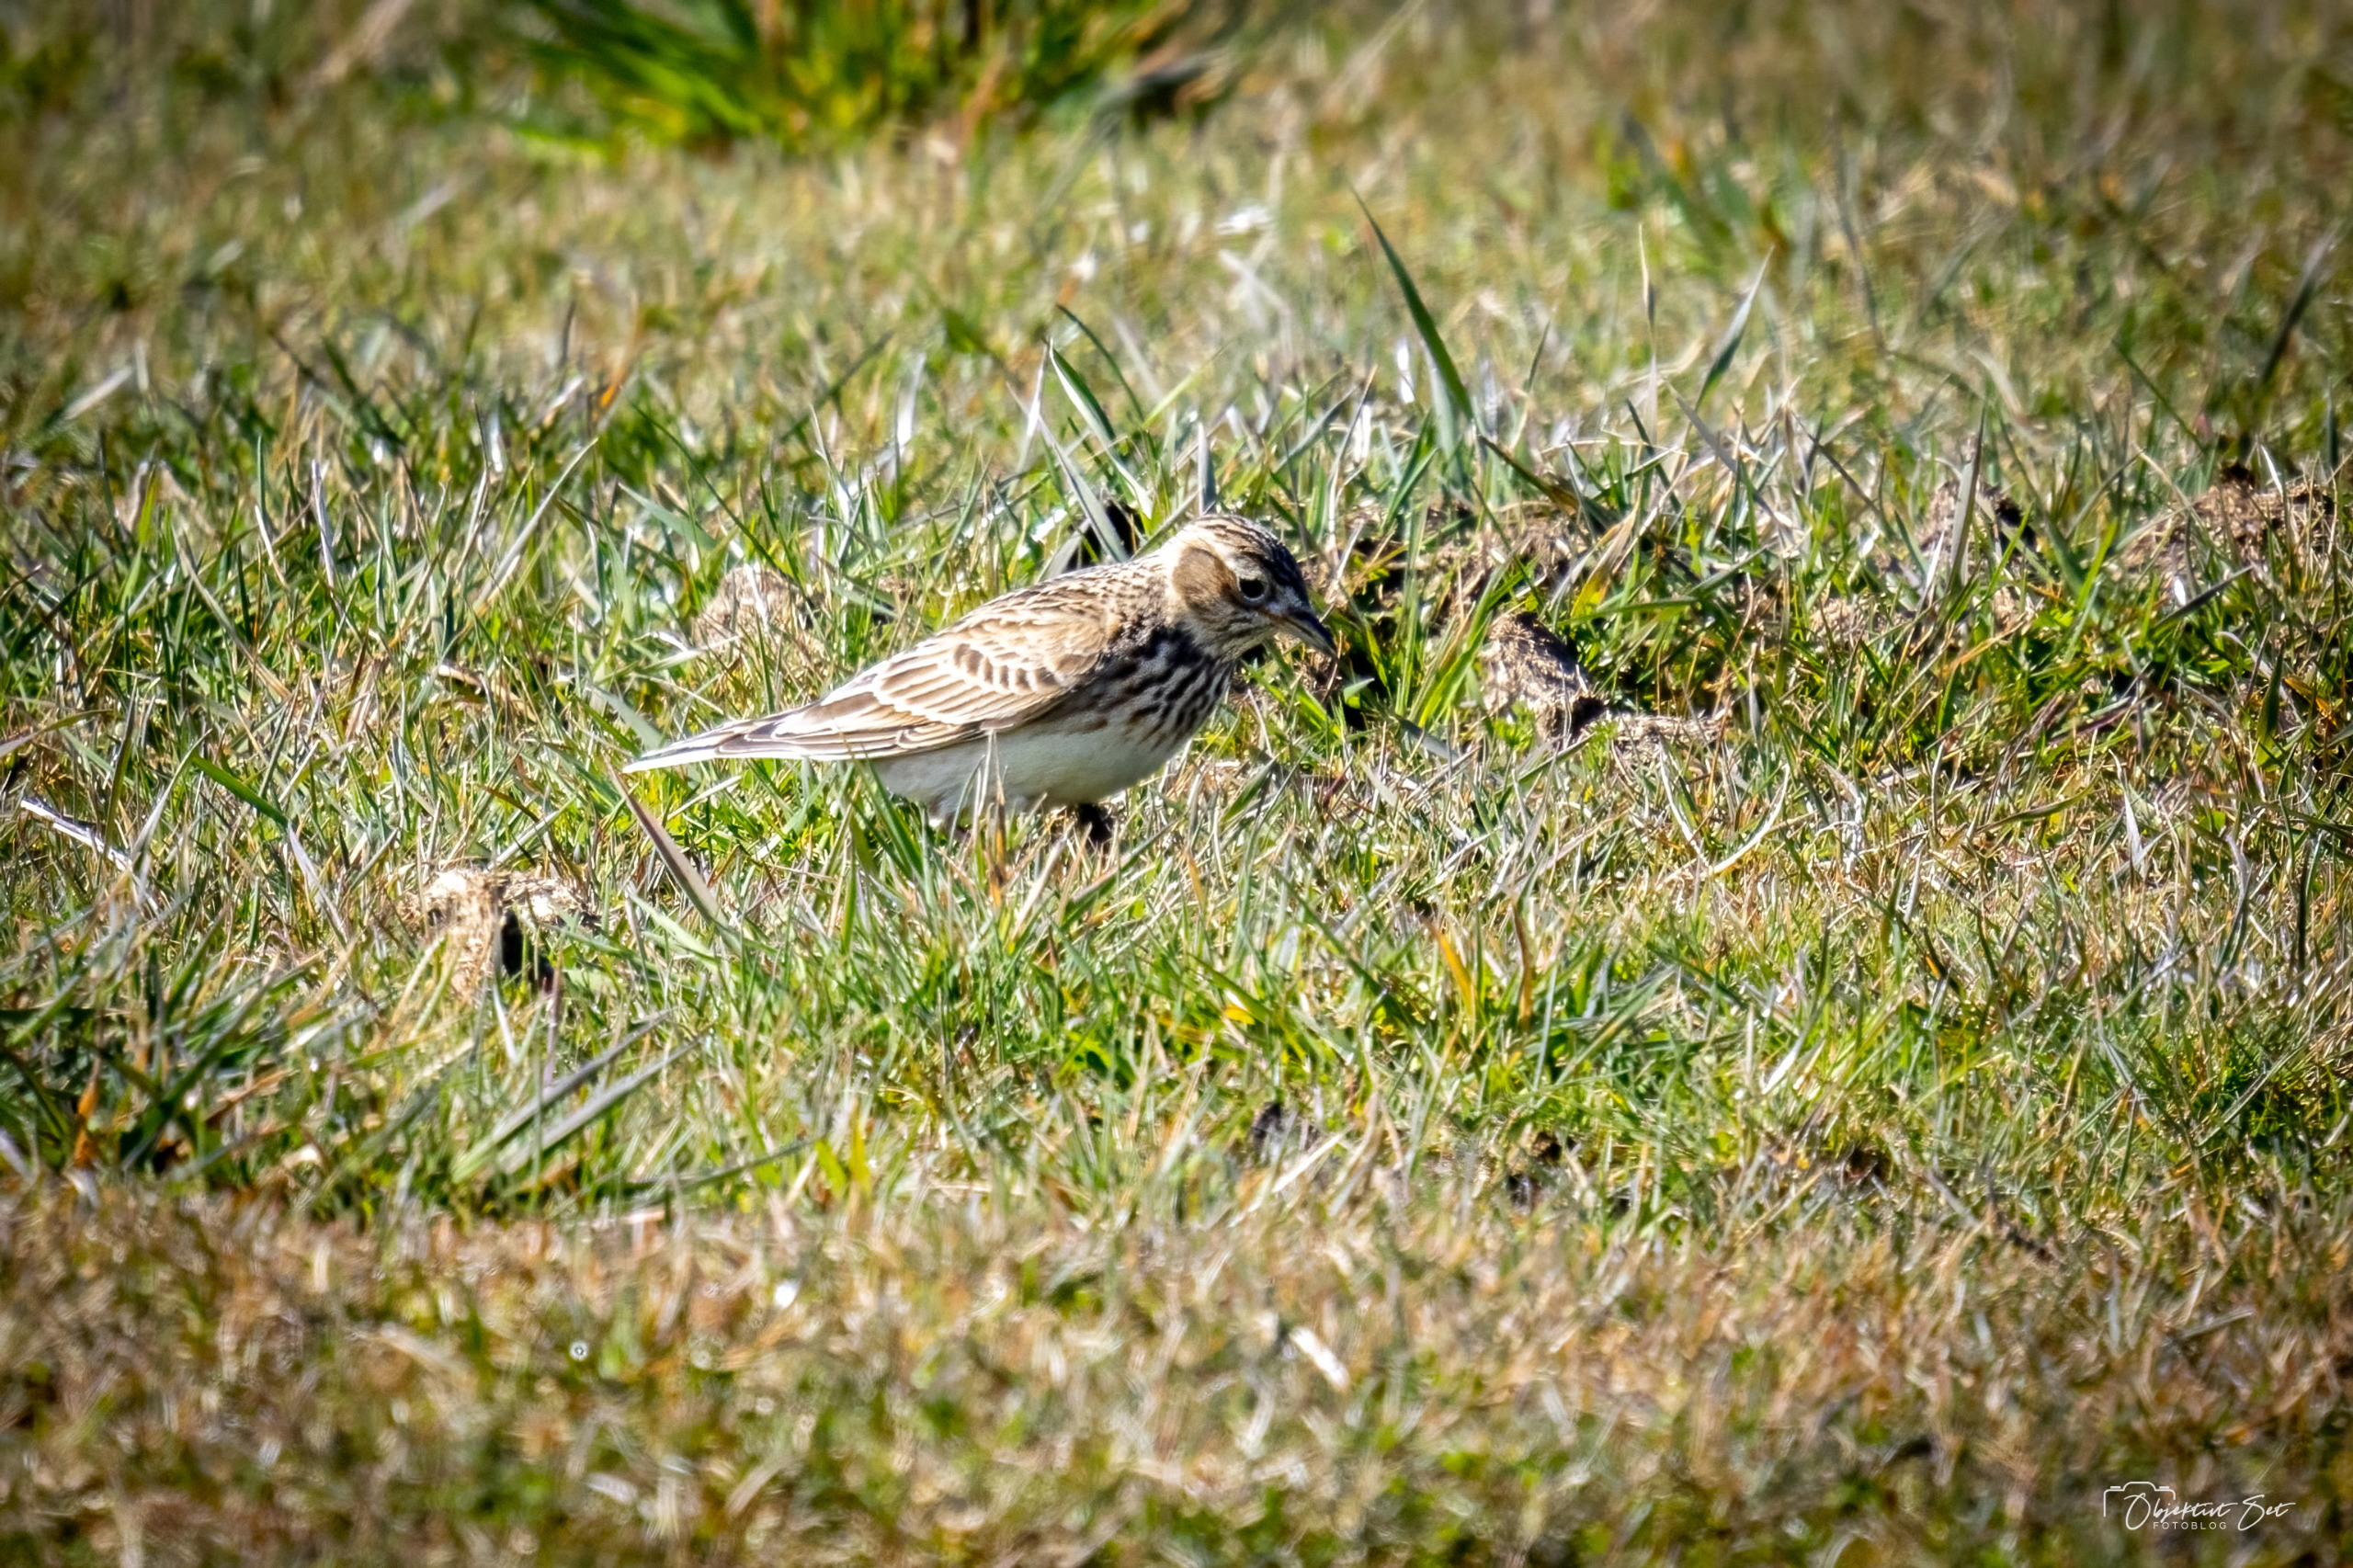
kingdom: Animalia
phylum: Chordata
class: Aves
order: Passeriformes
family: Alaudidae
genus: Alauda
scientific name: Alauda arvensis
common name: Sanglærke
